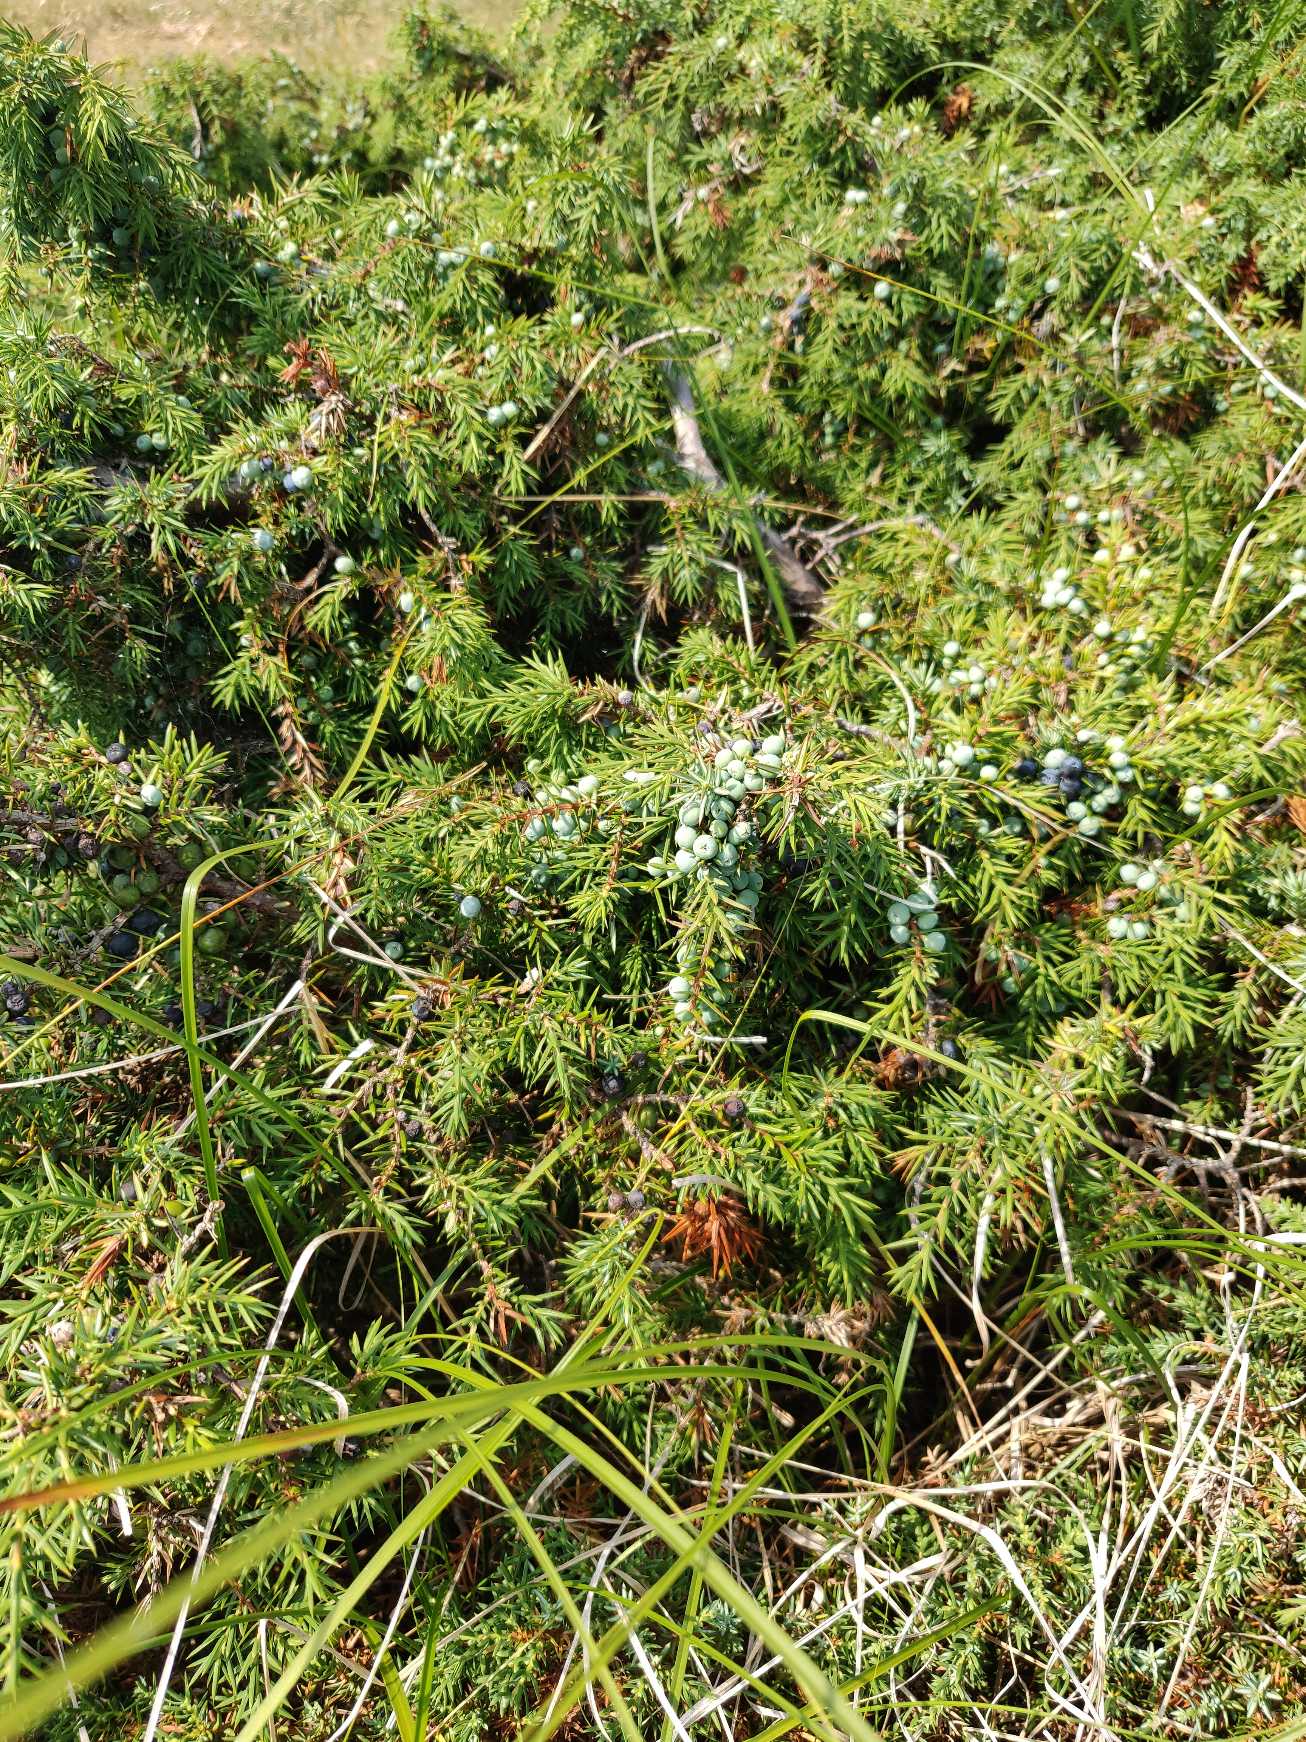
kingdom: Plantae
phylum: Tracheophyta
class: Pinopsida
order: Pinales
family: Cupressaceae
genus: Juniperus
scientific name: Juniperus communis
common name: Almindelig ene
